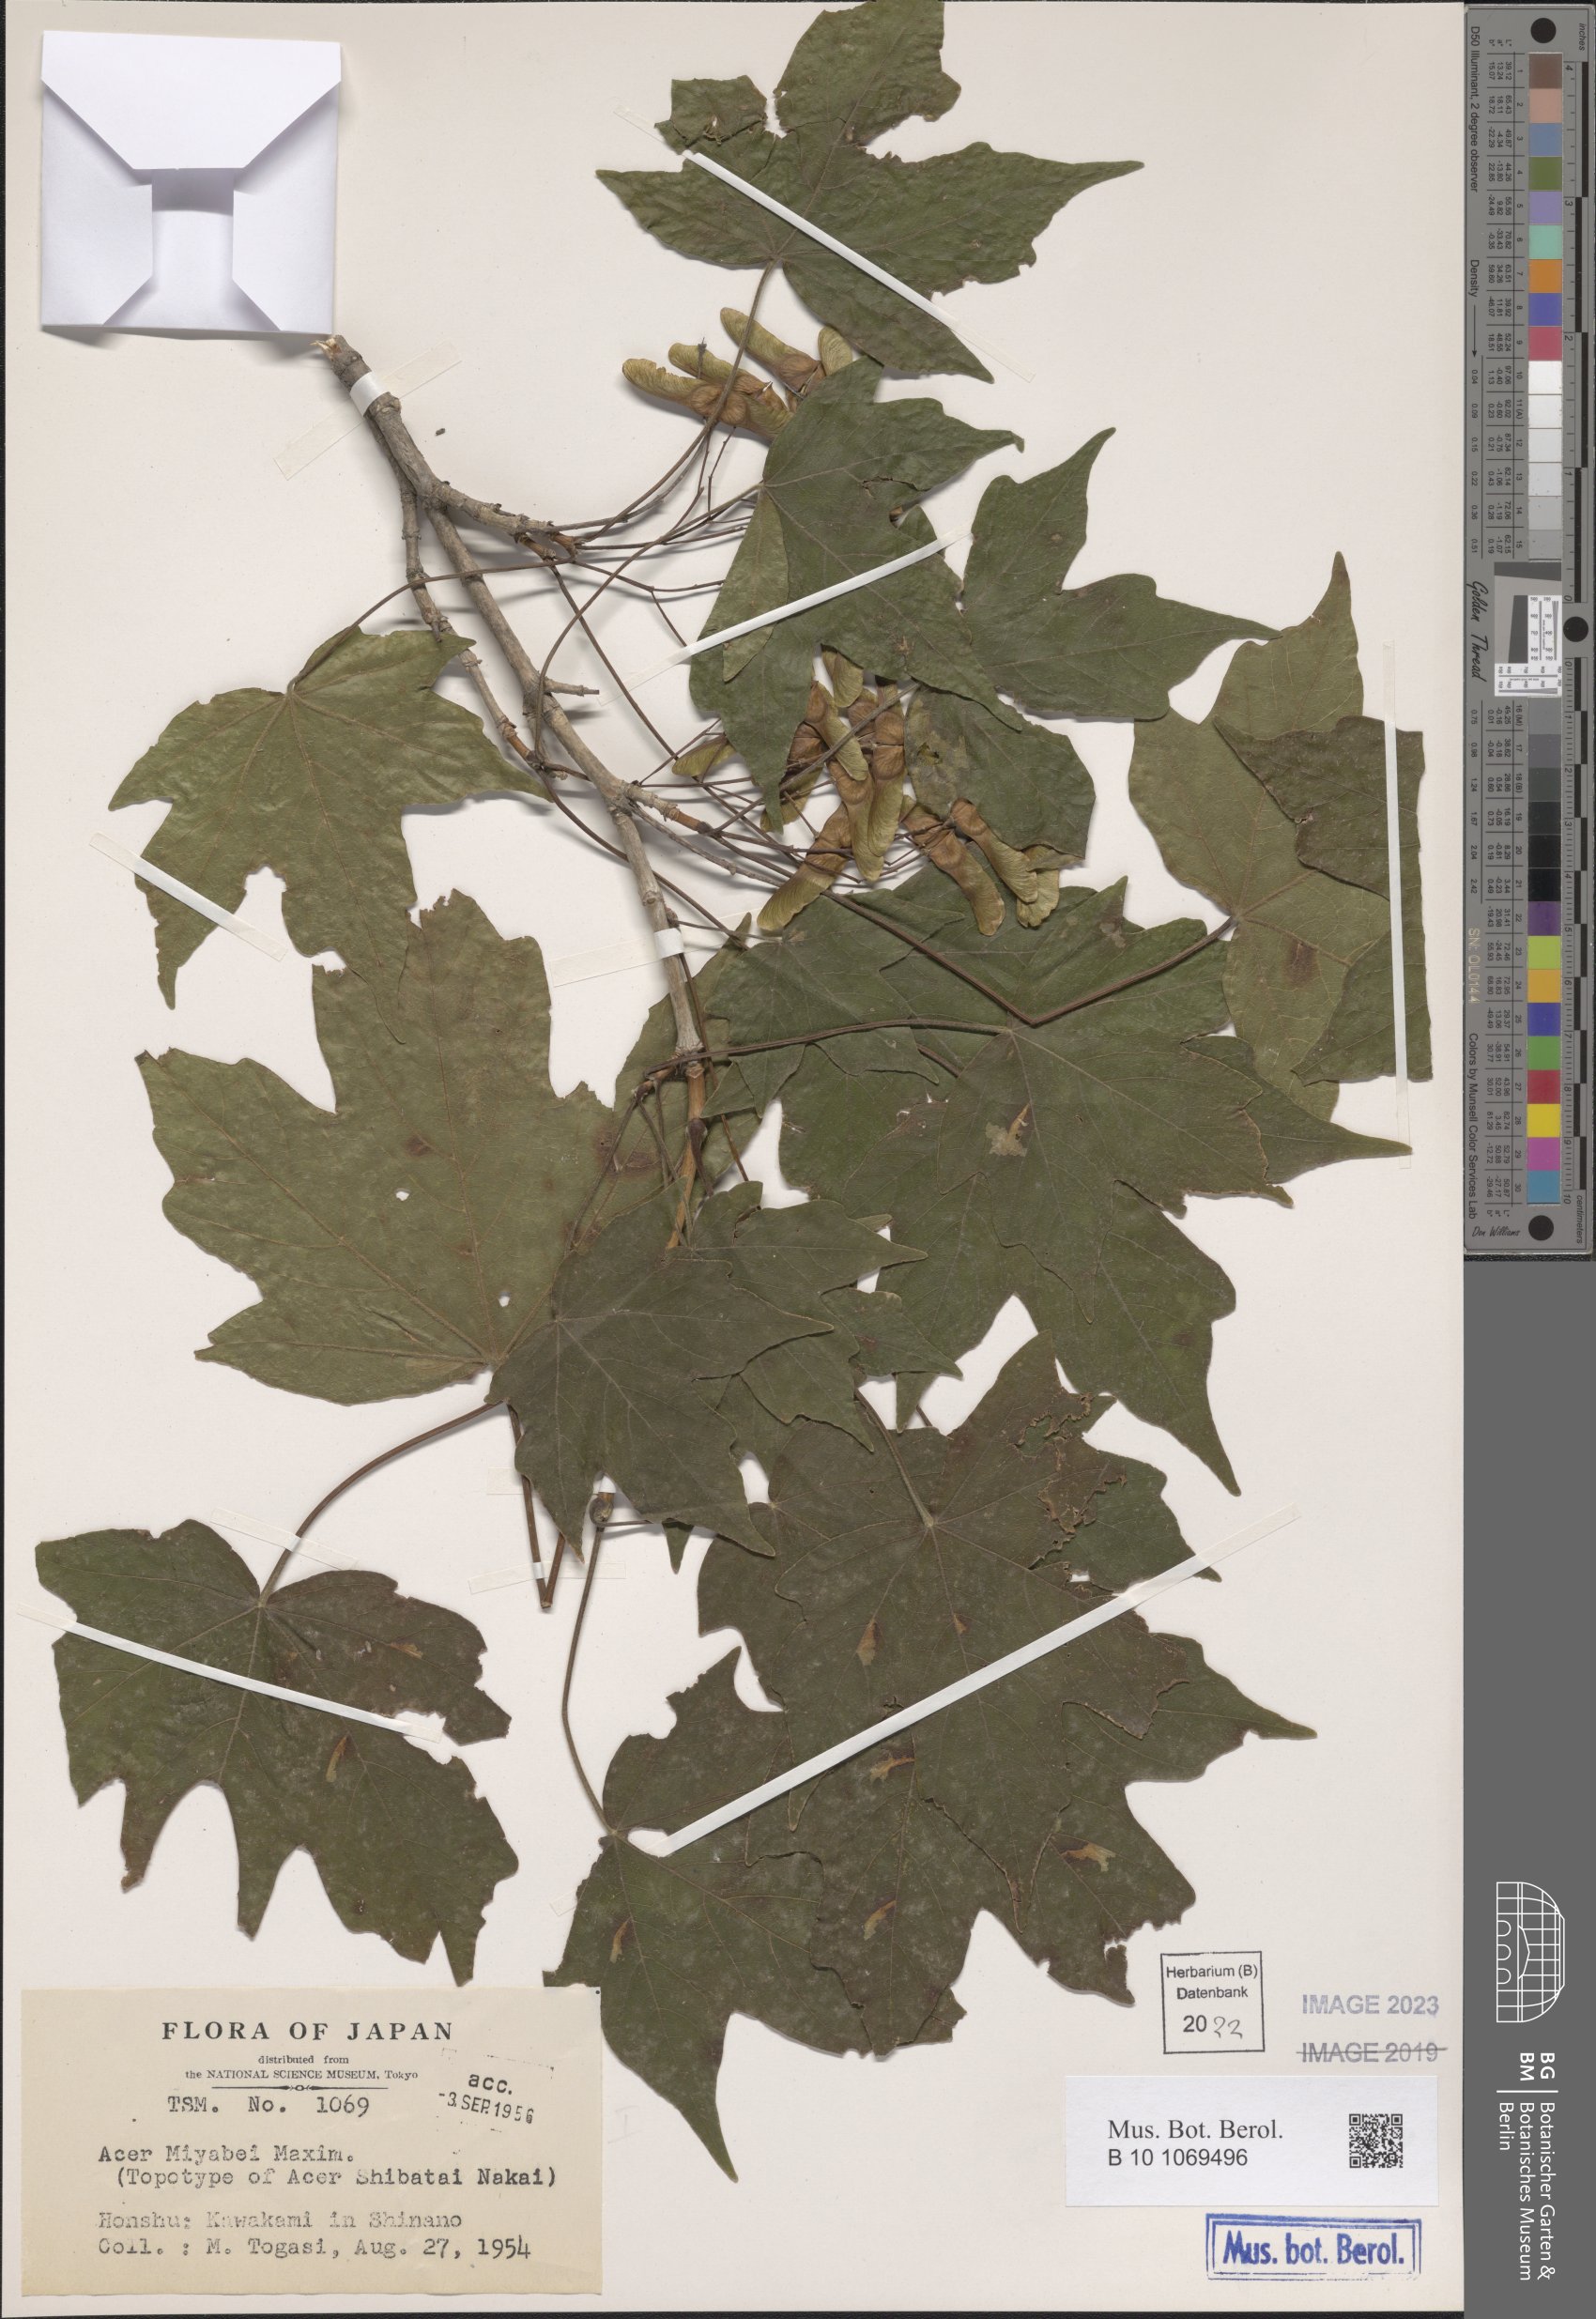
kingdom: Plantae
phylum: Tracheophyta
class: Magnoliopsida
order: Sapindales
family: Sapindaceae
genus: Acer
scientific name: Acer miyabei
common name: Miyabe's maple
